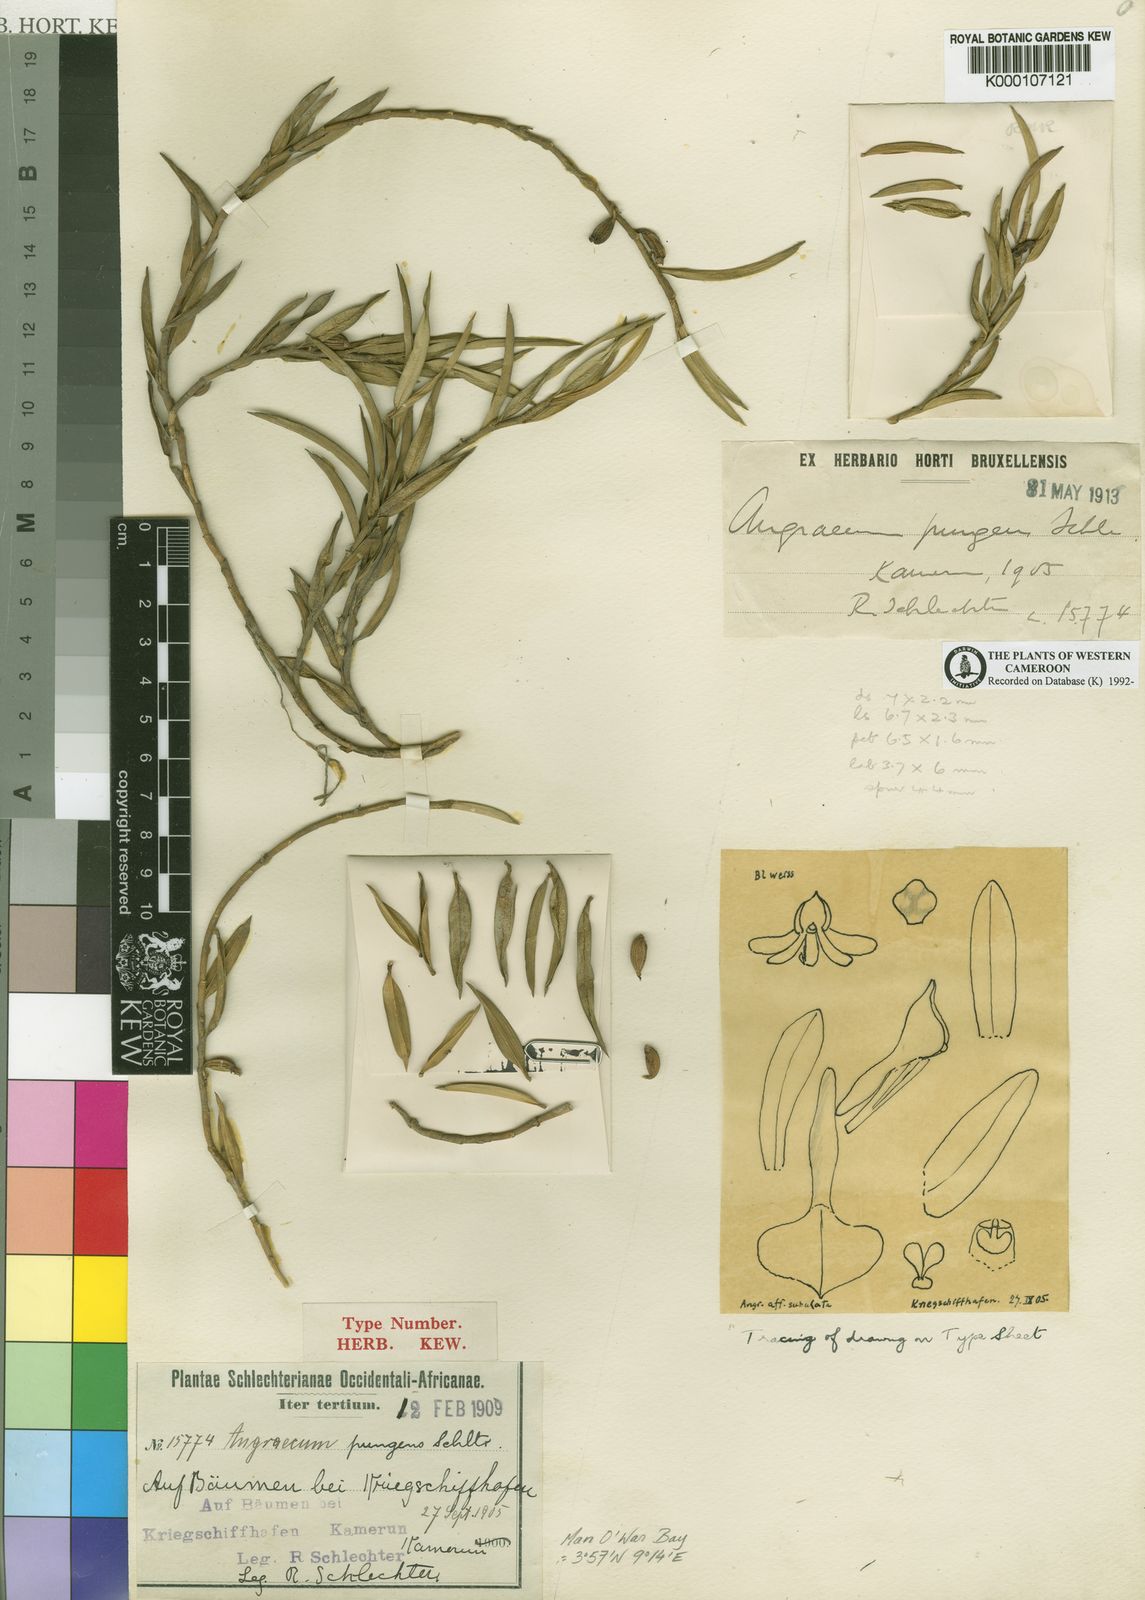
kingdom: Plantae
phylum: Tracheophyta
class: Liliopsida
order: Asparagales
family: Orchidaceae
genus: Afropectinariella
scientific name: Afropectinariella pungens
